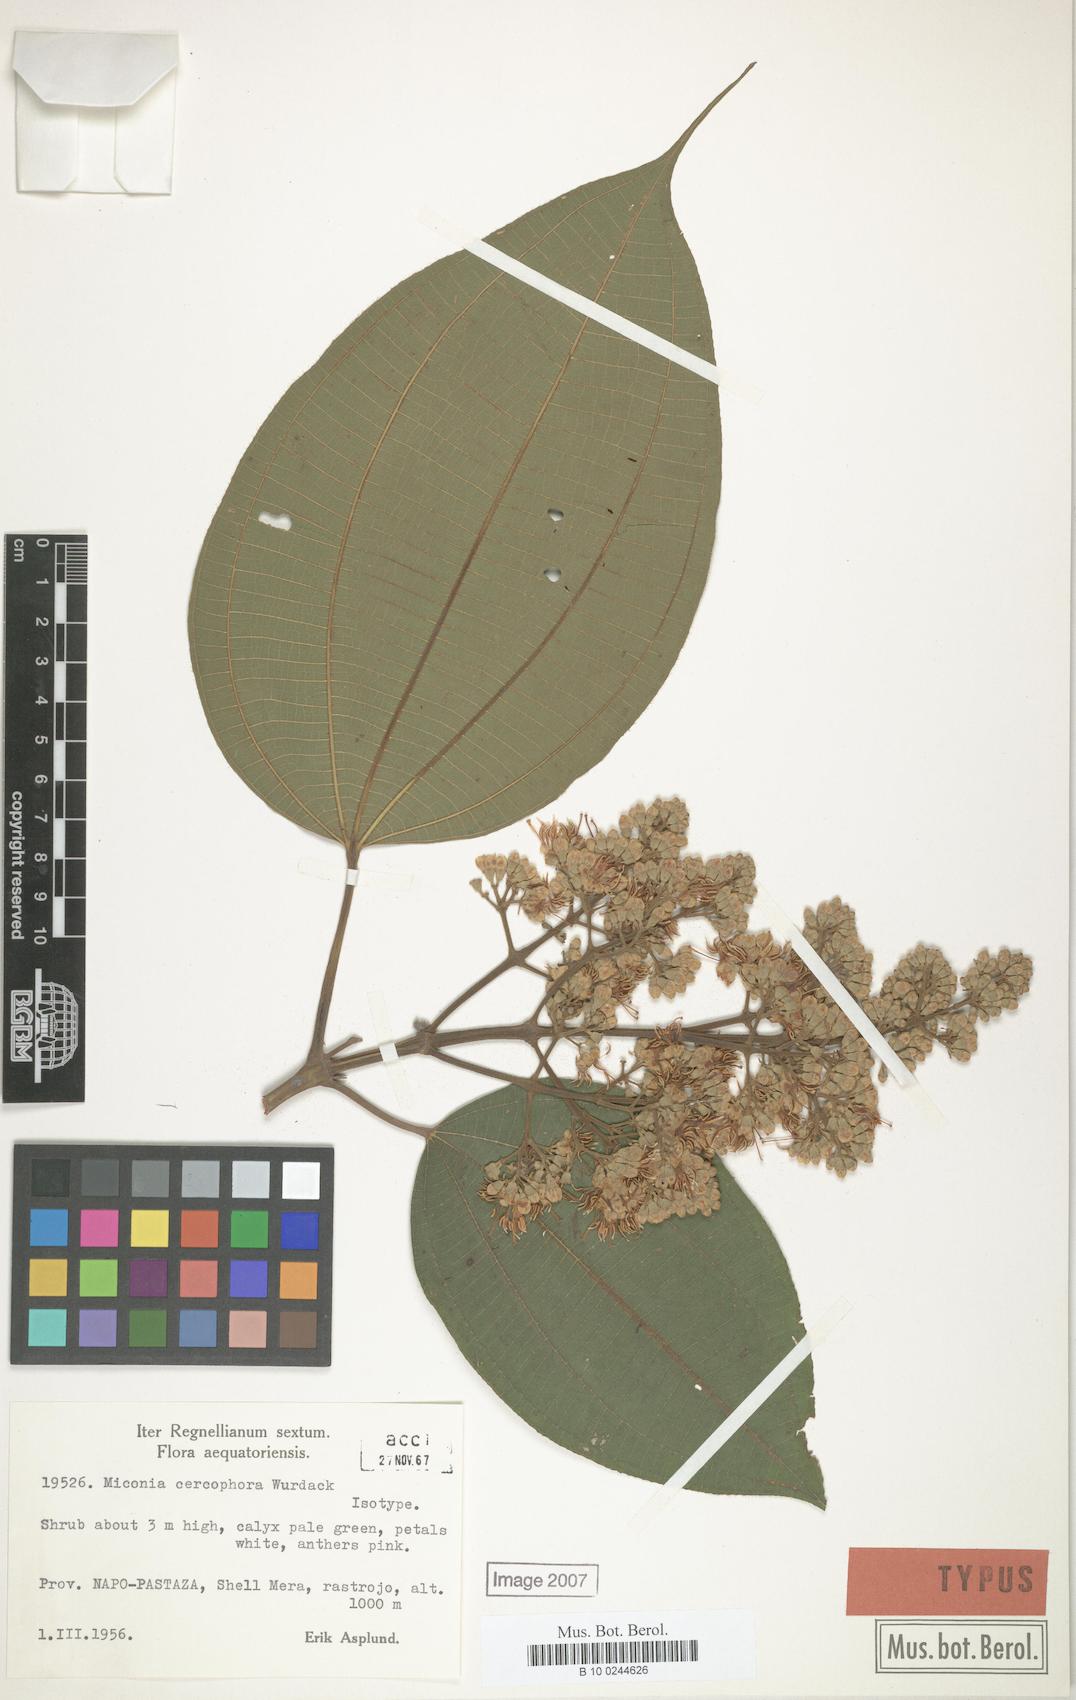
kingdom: Plantae
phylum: Tracheophyta
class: Magnoliopsida
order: Myrtales
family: Melastomataceae
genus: Miconia
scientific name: Miconia cercophora
